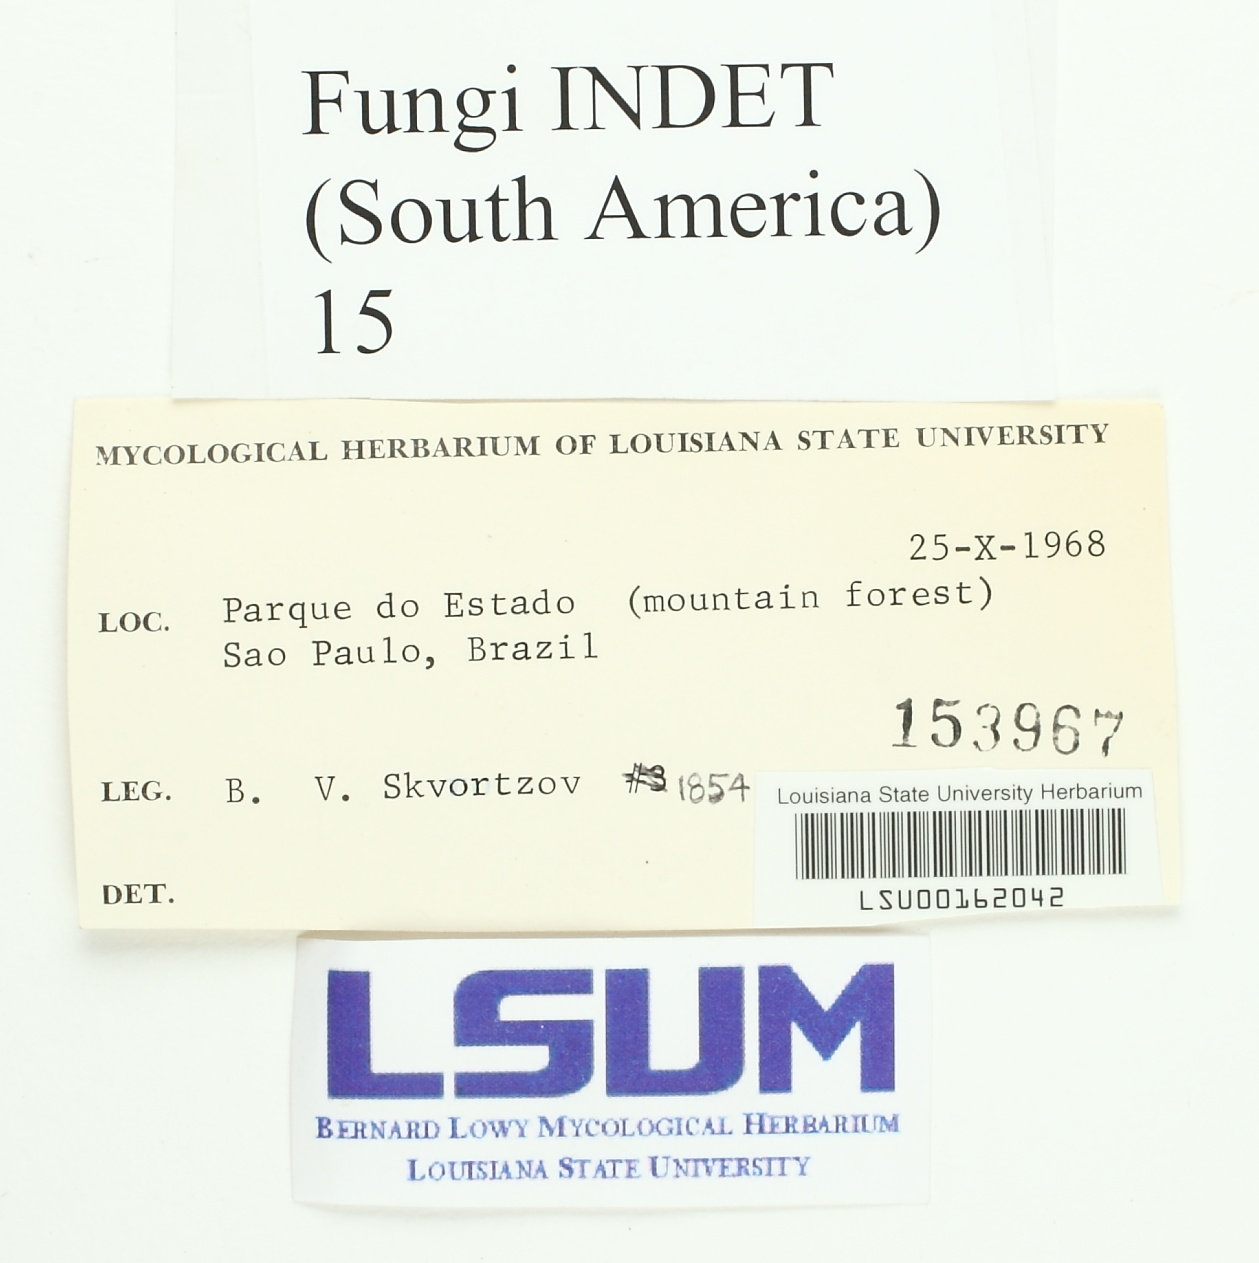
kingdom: Fungi
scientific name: Fungi
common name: Fungi
